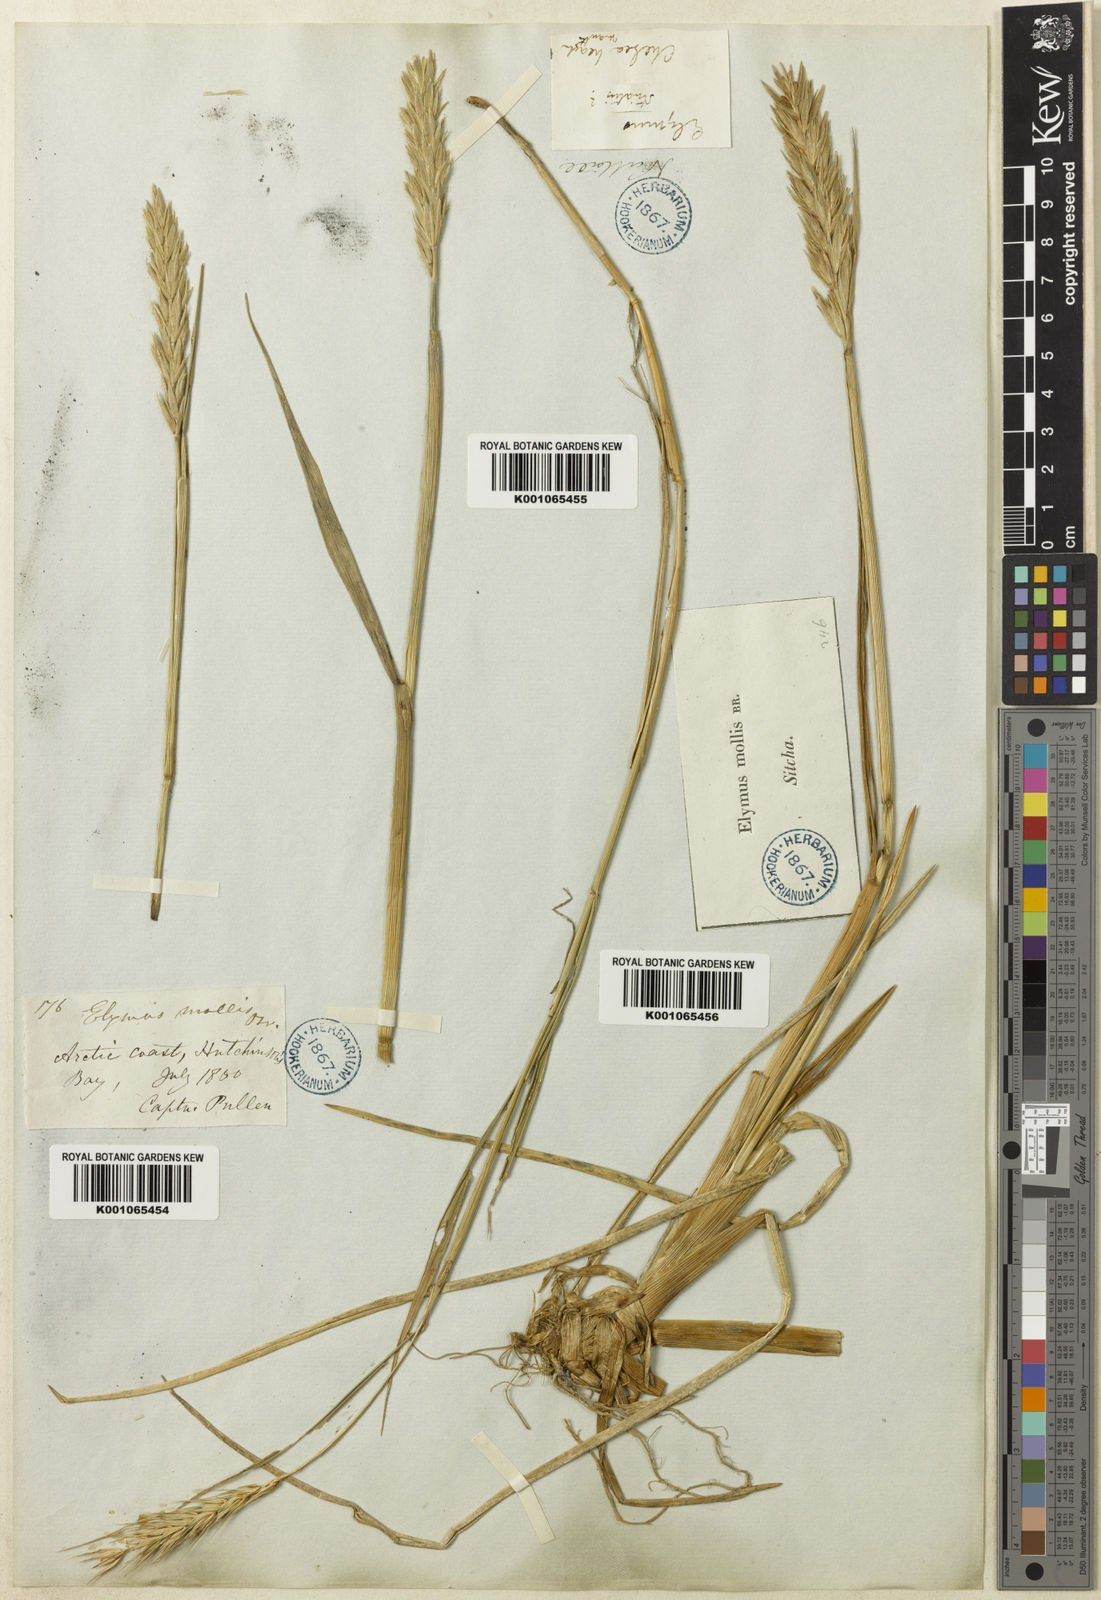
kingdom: Plantae
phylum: Tracheophyta
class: Liliopsida
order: Poales
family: Poaceae
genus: Leymus
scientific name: Leymus mollis
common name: American dune grass
